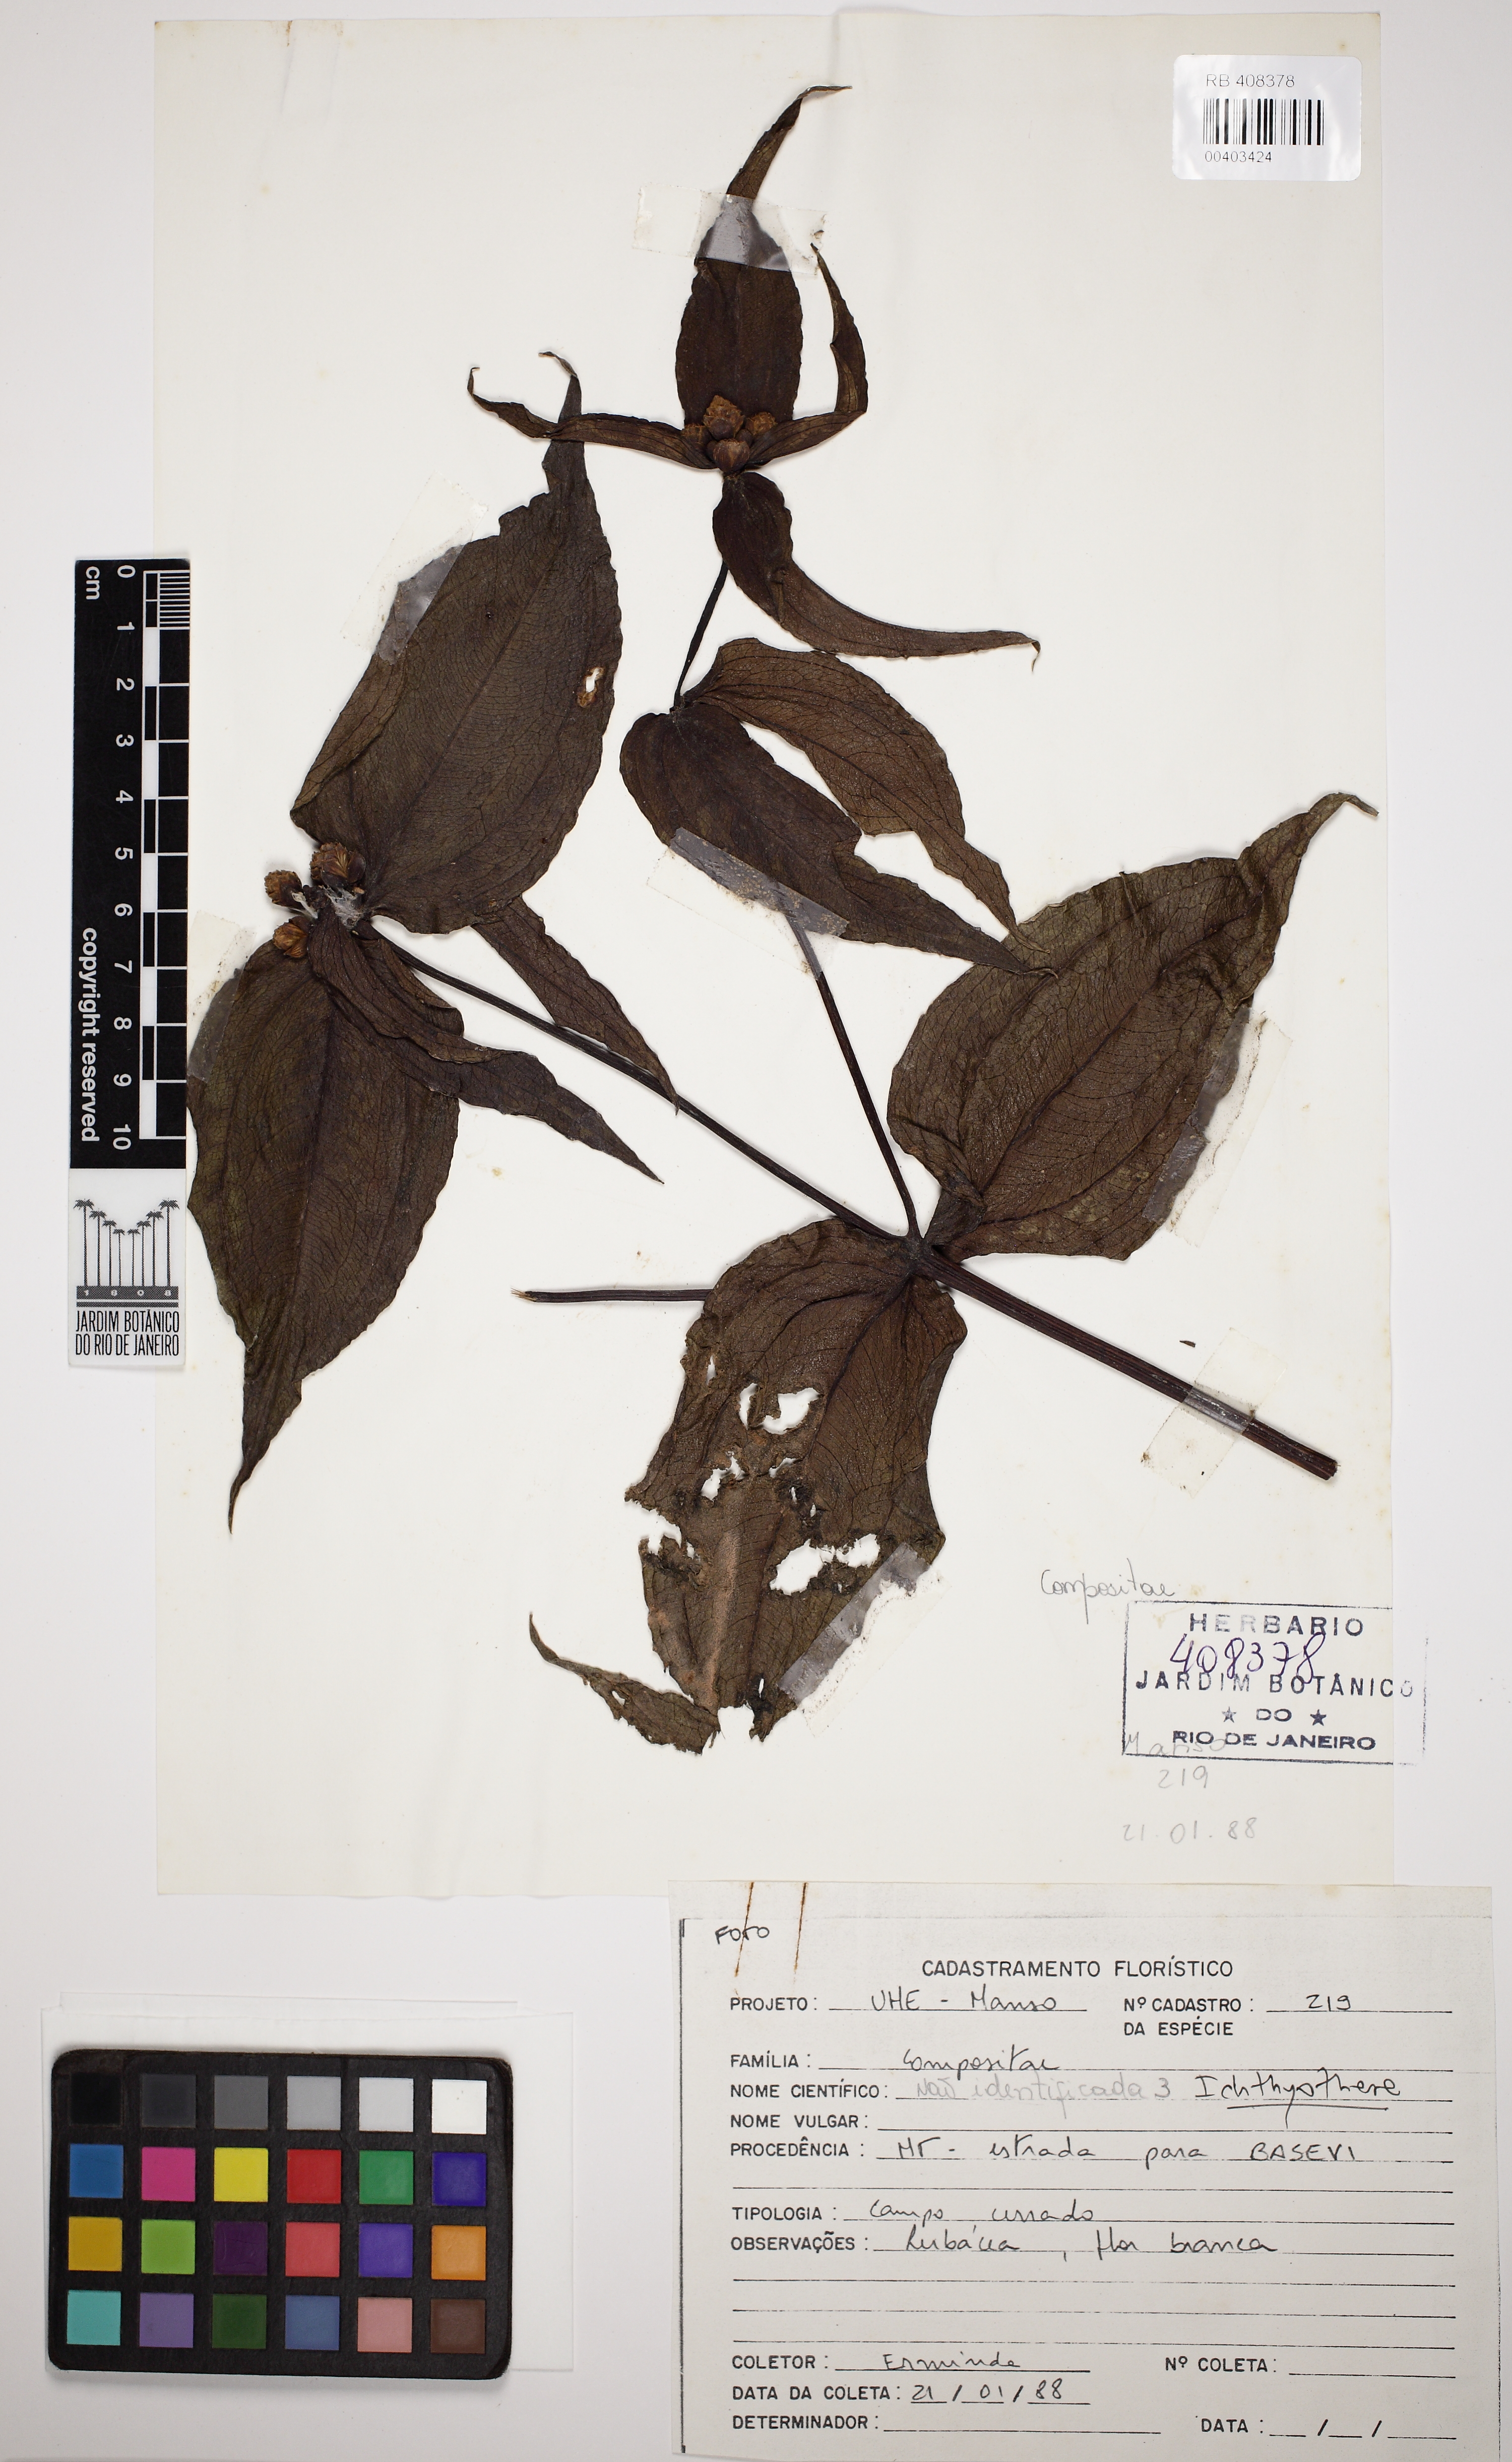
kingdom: Plantae
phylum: Tracheophyta
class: Magnoliopsida
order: Asterales
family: Asteraceae
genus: Ichthyothere
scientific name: Ichthyothere
